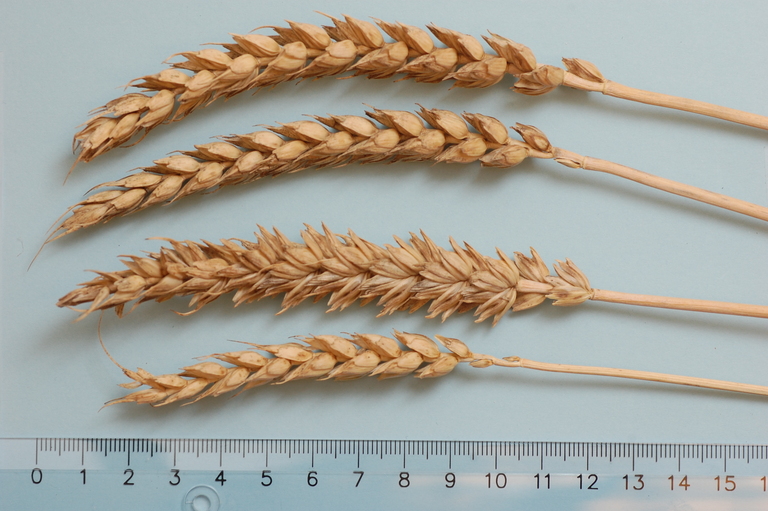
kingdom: Plantae
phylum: Tracheophyta
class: Liliopsida
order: Poales
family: Poaceae
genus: Triticum
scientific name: Triticum aestivum
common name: Common wheat
